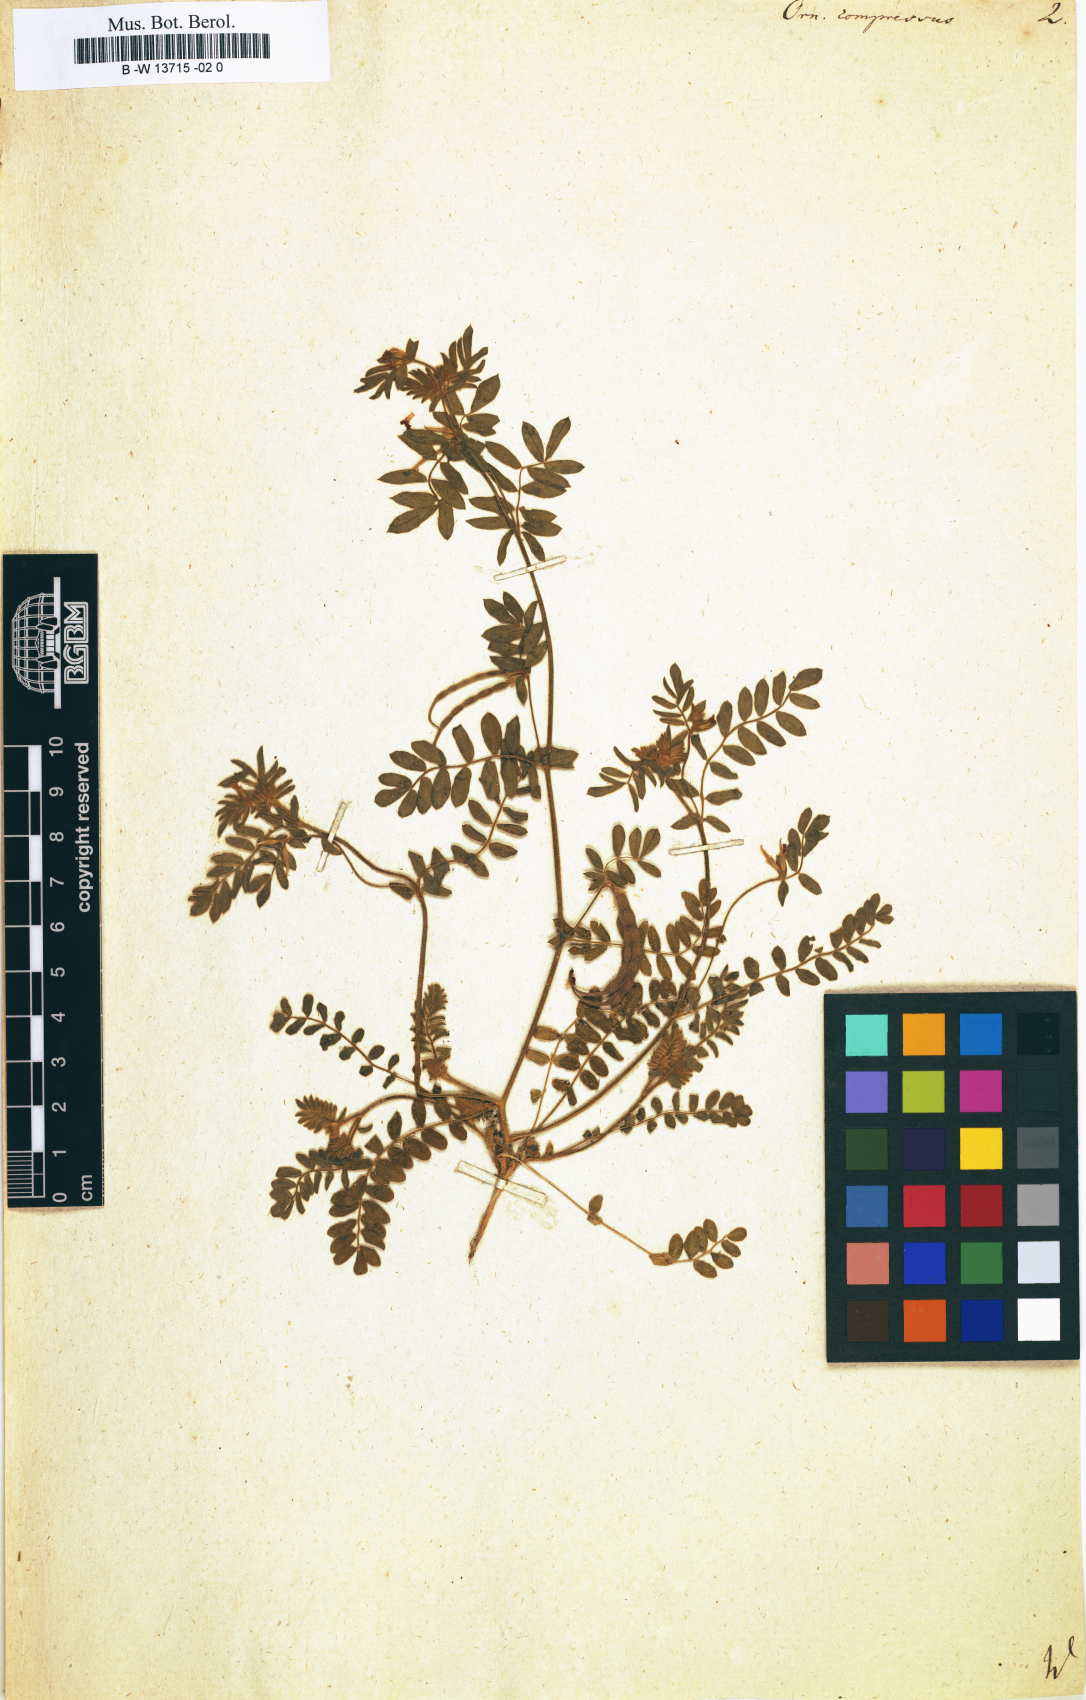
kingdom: Plantae
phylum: Tracheophyta
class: Magnoliopsida
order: Fabales
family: Fabaceae
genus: Ornithopus
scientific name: Ornithopus compressus
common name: Yellow serradella
